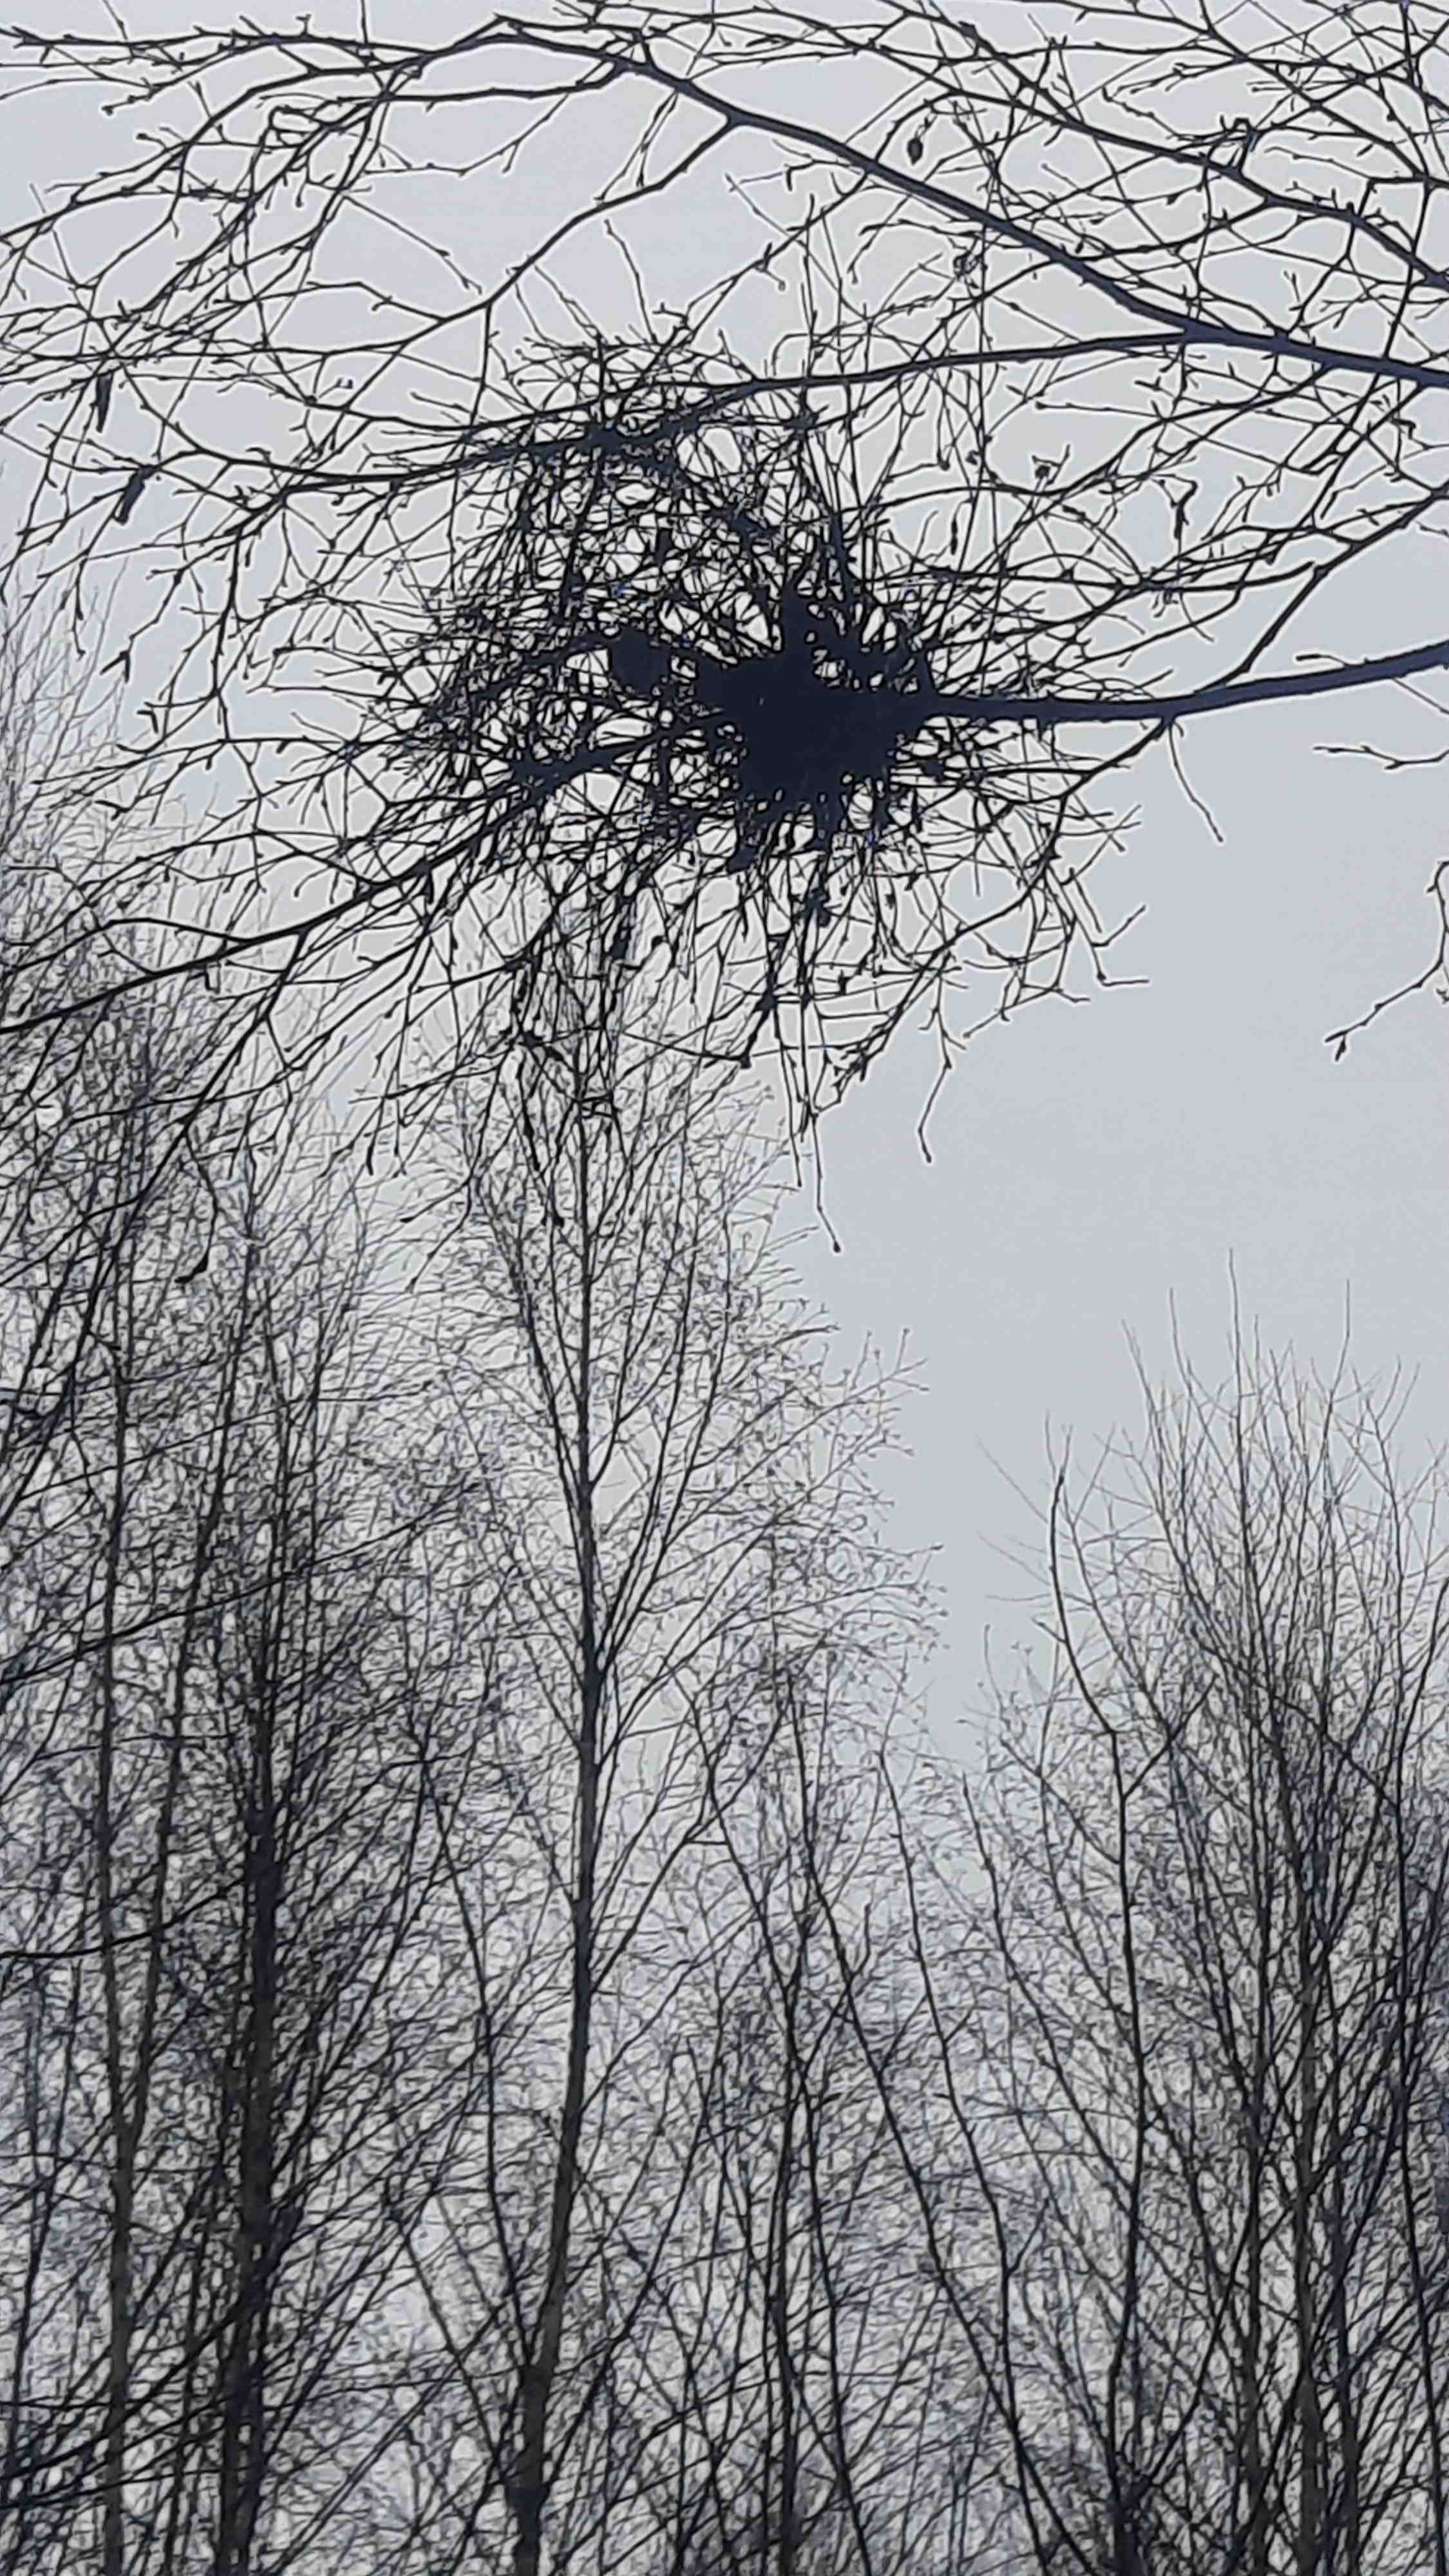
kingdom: Fungi
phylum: Ascomycota
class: Taphrinomycetes
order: Taphrinales
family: Taphrinaceae
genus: Taphrina
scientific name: Taphrina betulina
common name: hekse-sækdug
